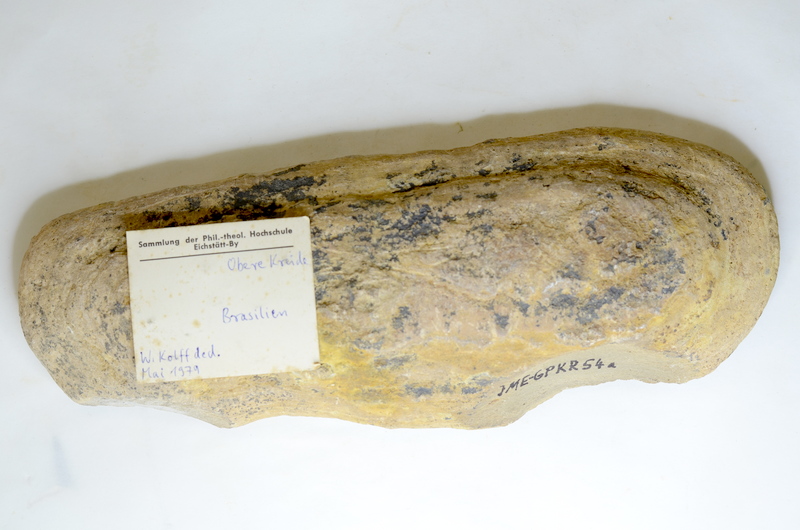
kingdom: Animalia
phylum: Chordata
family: Dorypteridae
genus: Rhacolepis
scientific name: Rhacolepis buccalis
